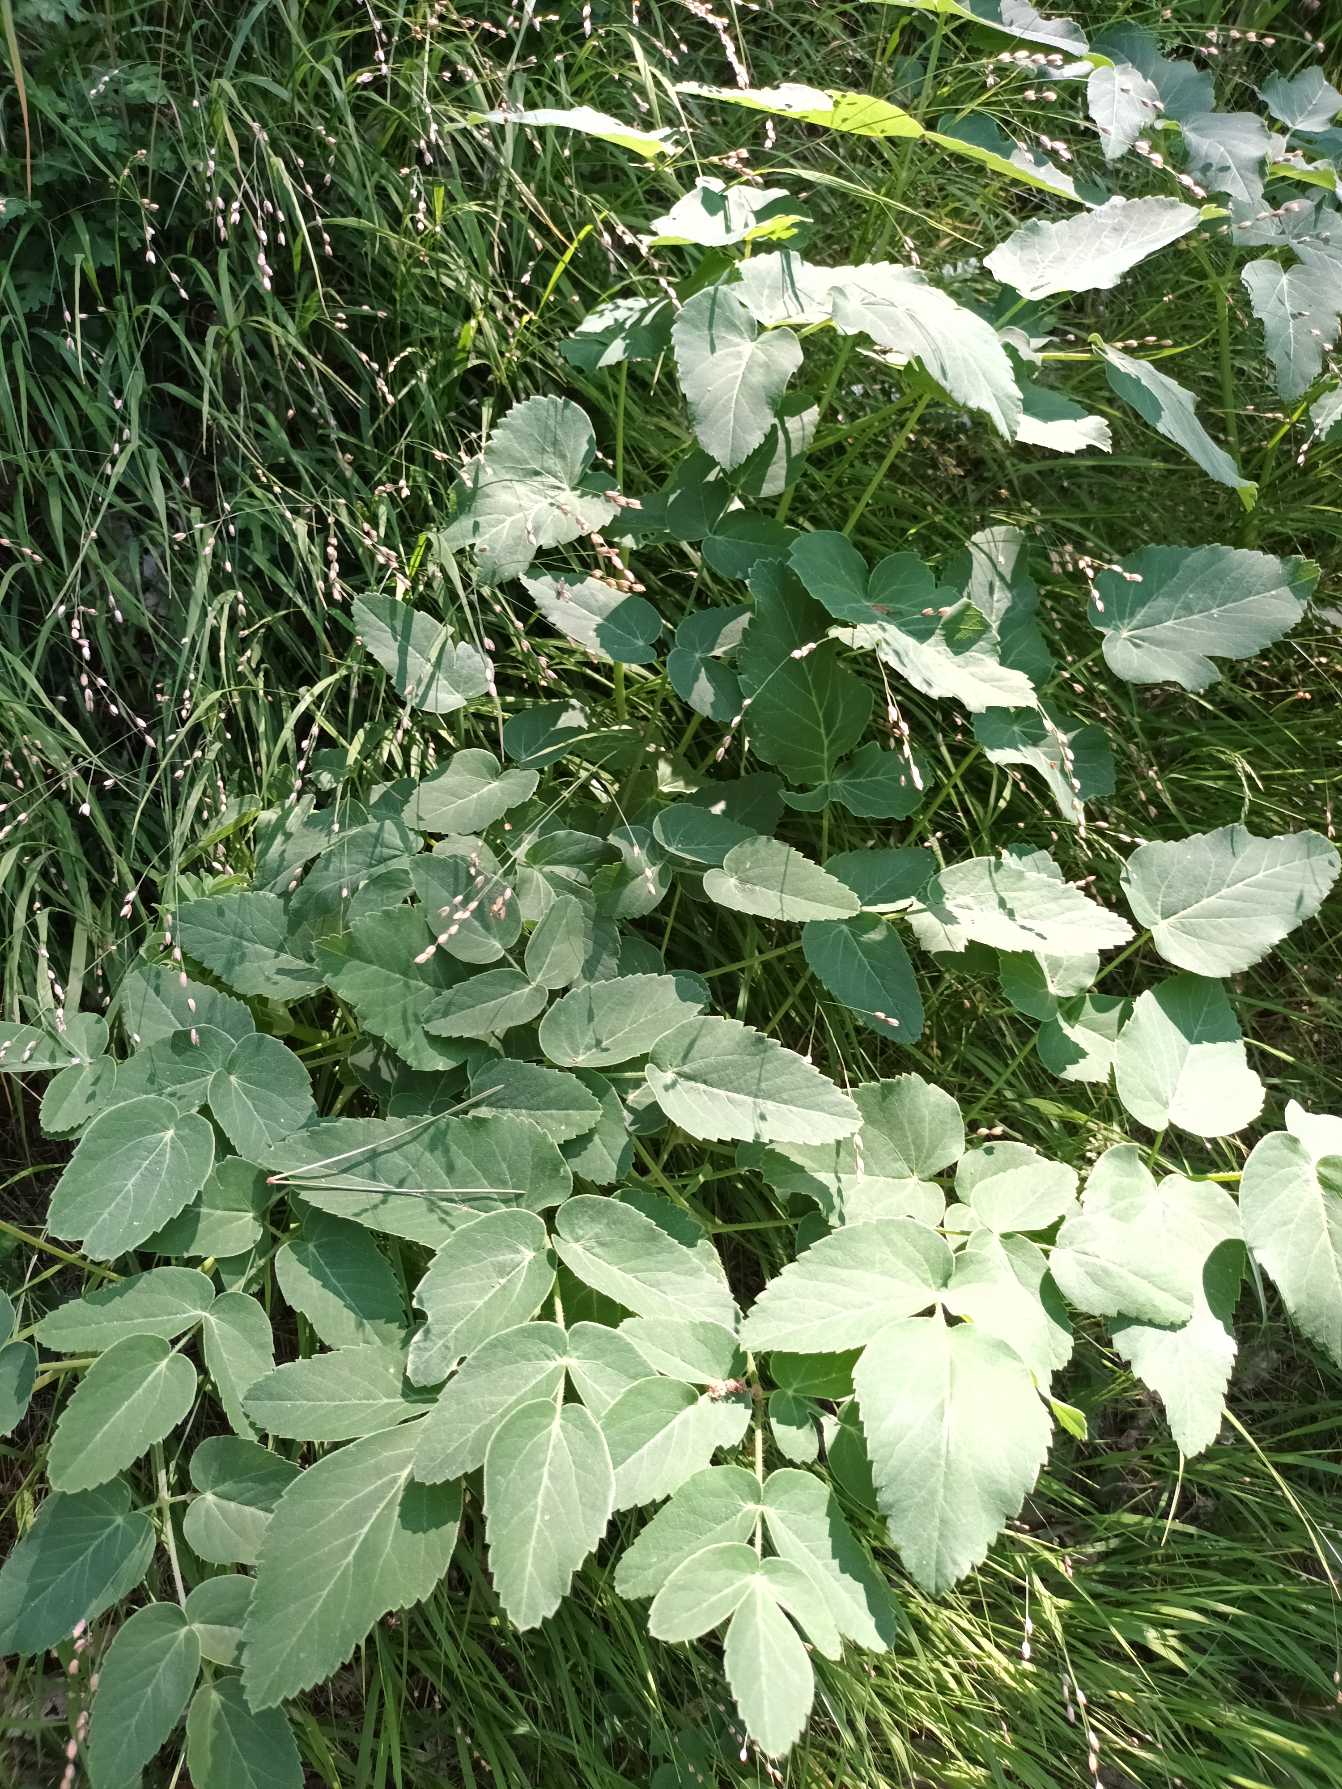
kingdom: Plantae
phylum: Tracheophyta
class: Magnoliopsida
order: Apiales
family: Apiaceae
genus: Laserpitium
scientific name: Laserpitium latifolium
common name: Foldfrø
